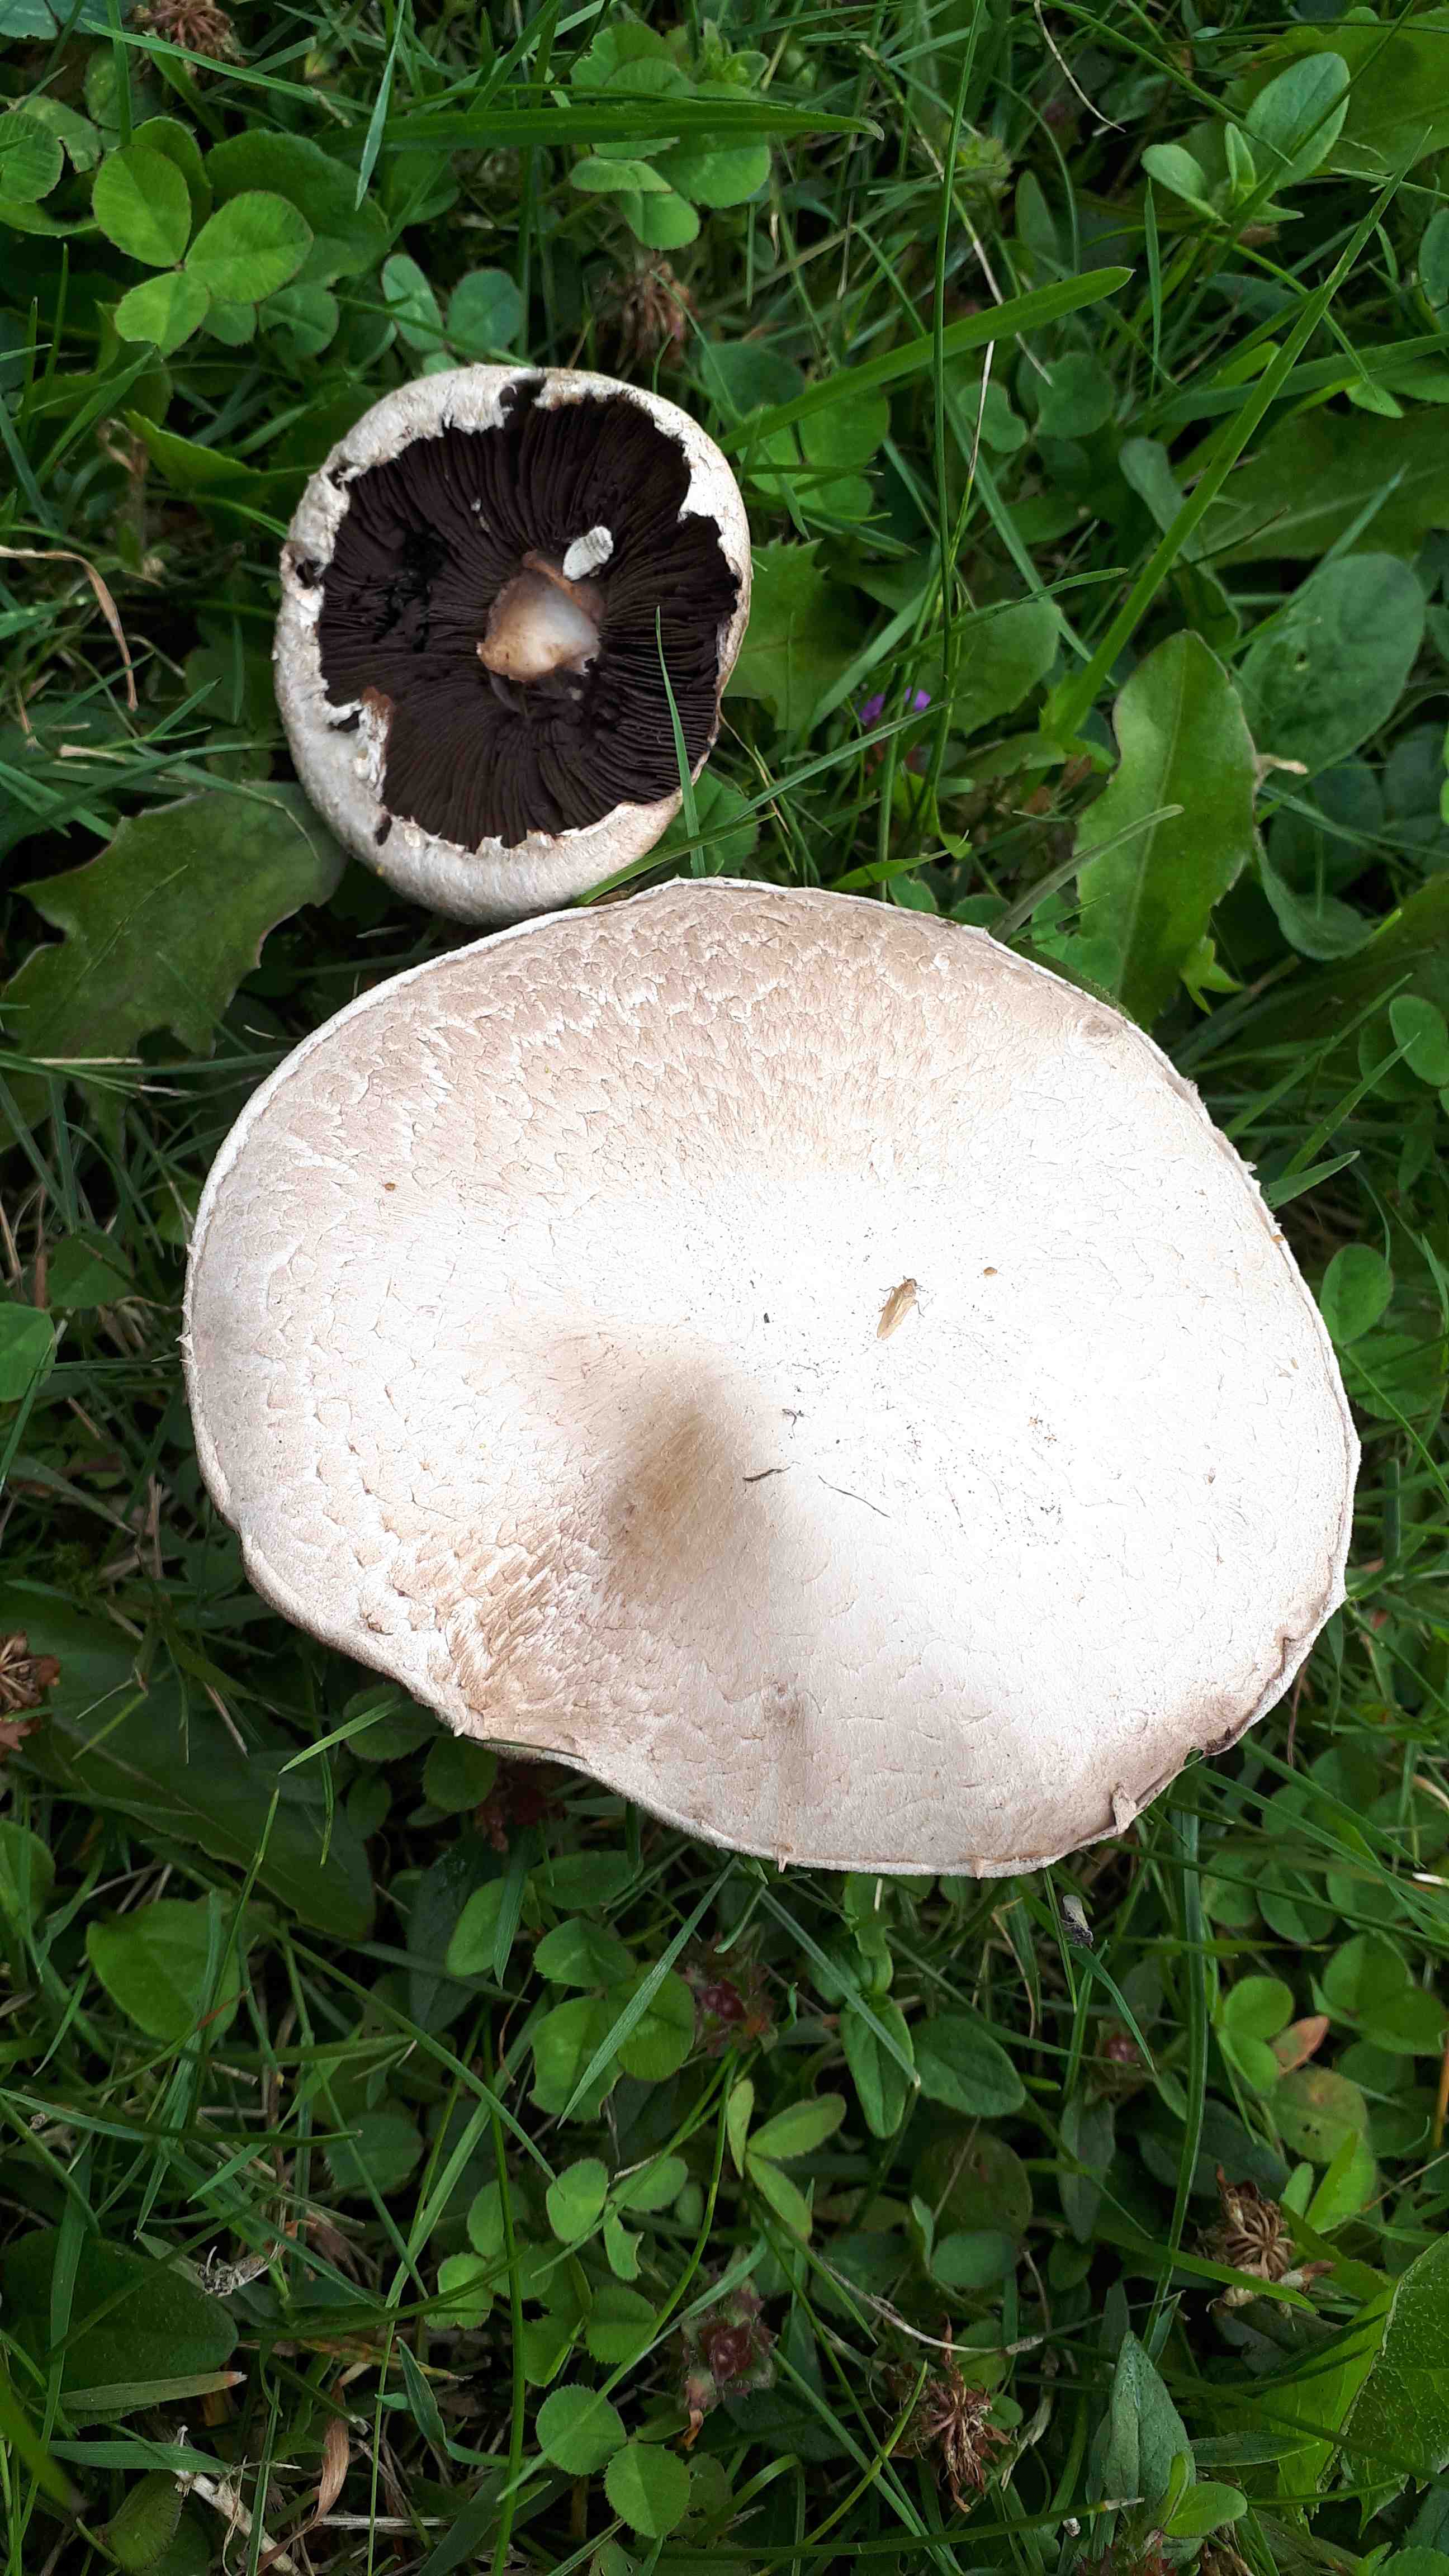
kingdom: Fungi
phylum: Basidiomycota
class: Agaricomycetes
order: Agaricales
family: Agaricaceae
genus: Agaricus
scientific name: Agaricus
